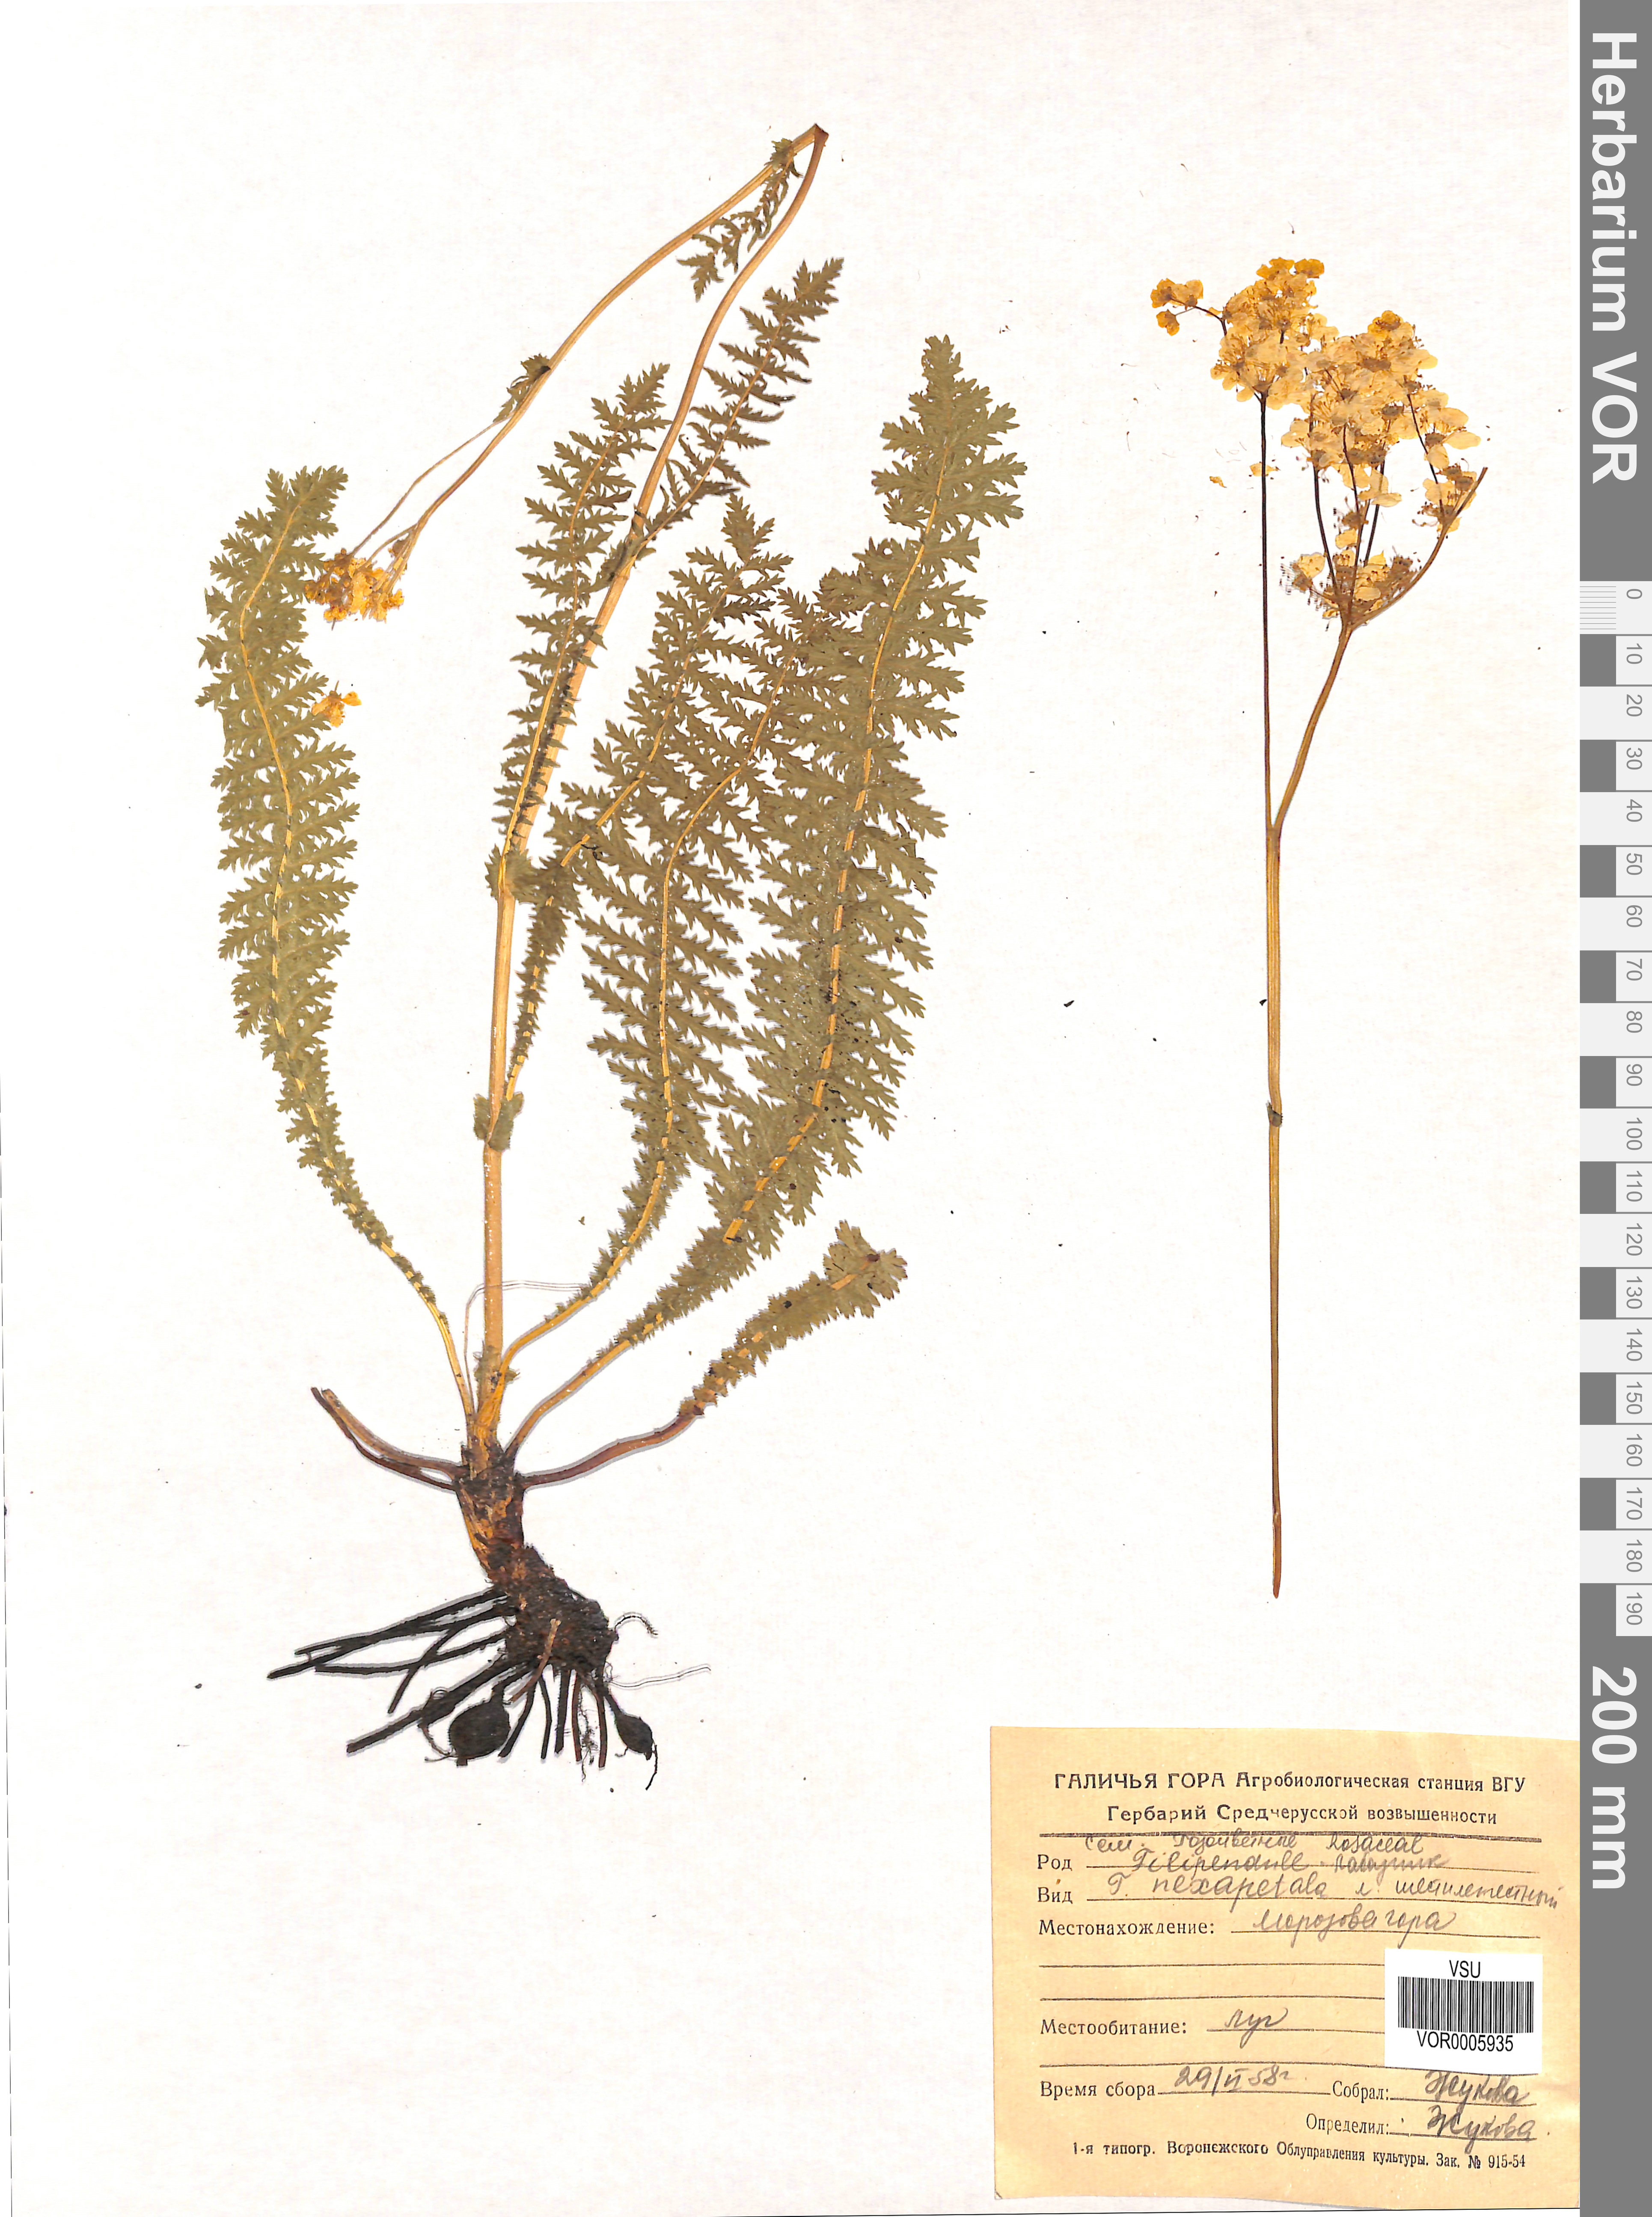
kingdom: Plantae
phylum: Tracheophyta
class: Magnoliopsida
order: Rosales
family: Rosaceae
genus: Filipendula
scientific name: Filipendula vulgaris
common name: Dropwort
